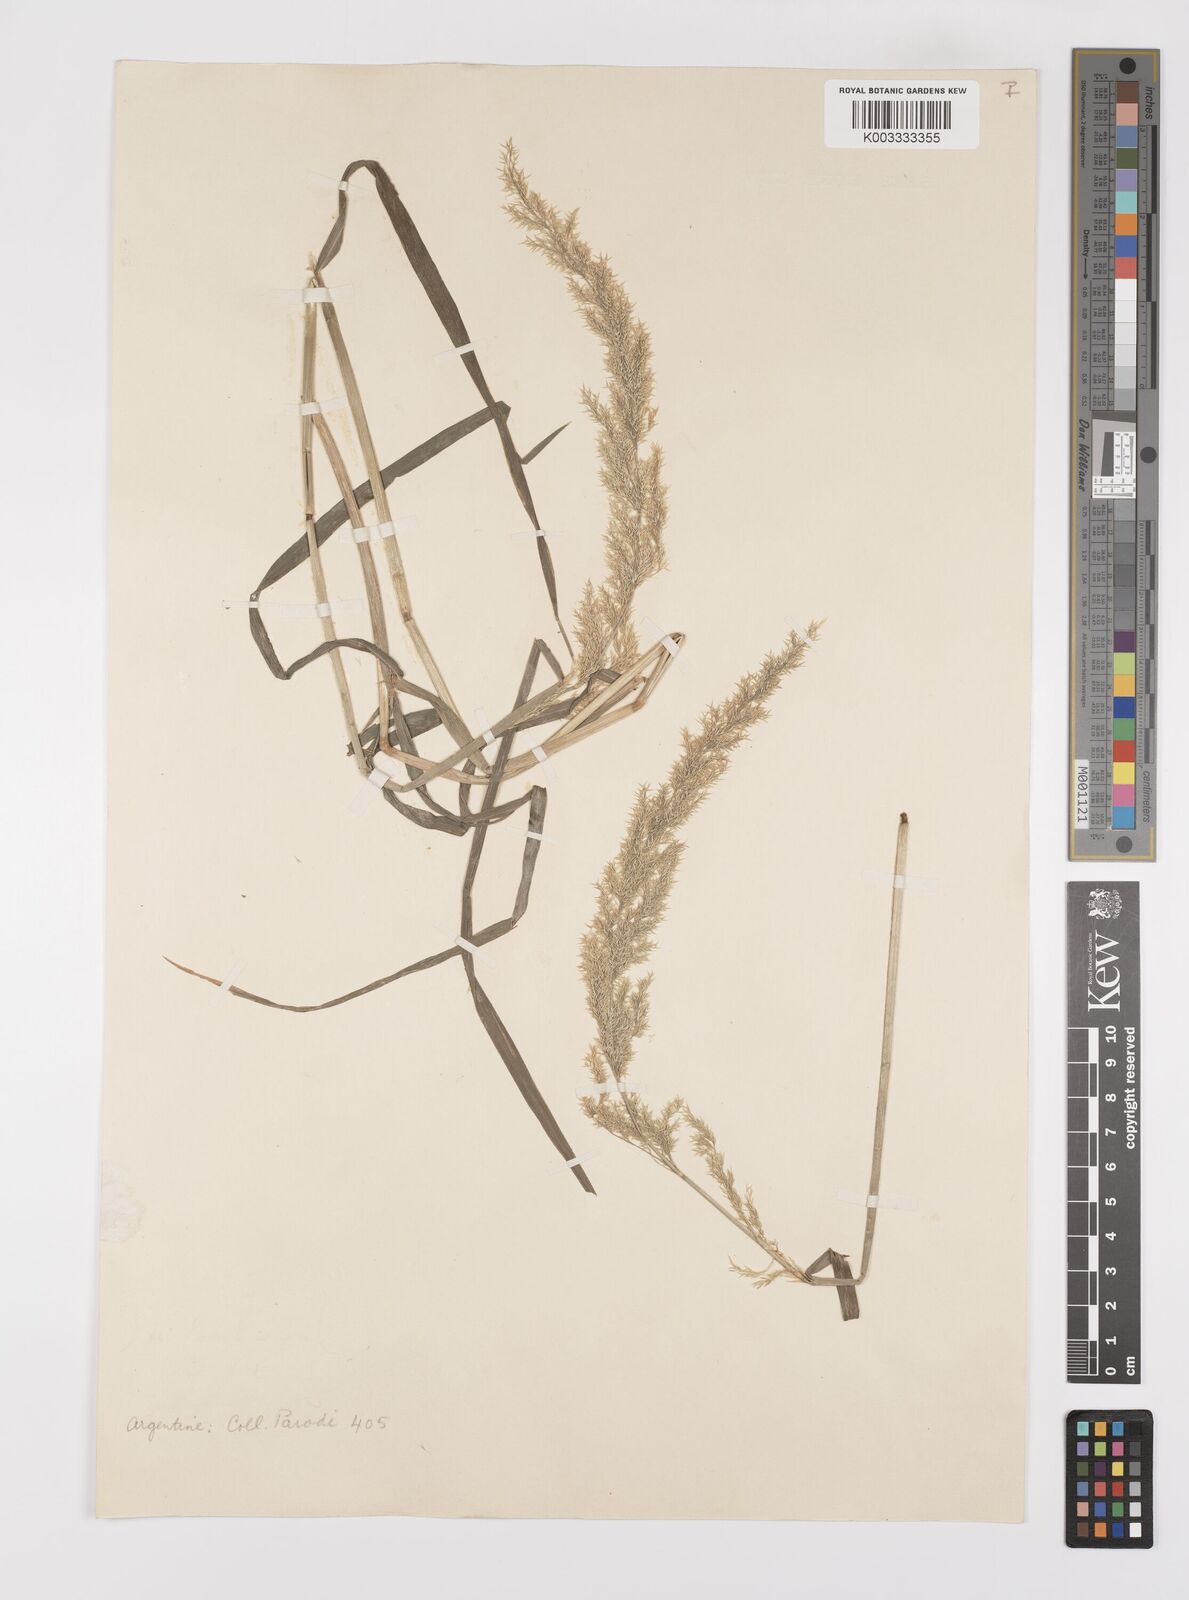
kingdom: Plantae
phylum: Tracheophyta
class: Liliopsida
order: Poales
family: Poaceae
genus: Polypogon
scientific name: Polypogon
